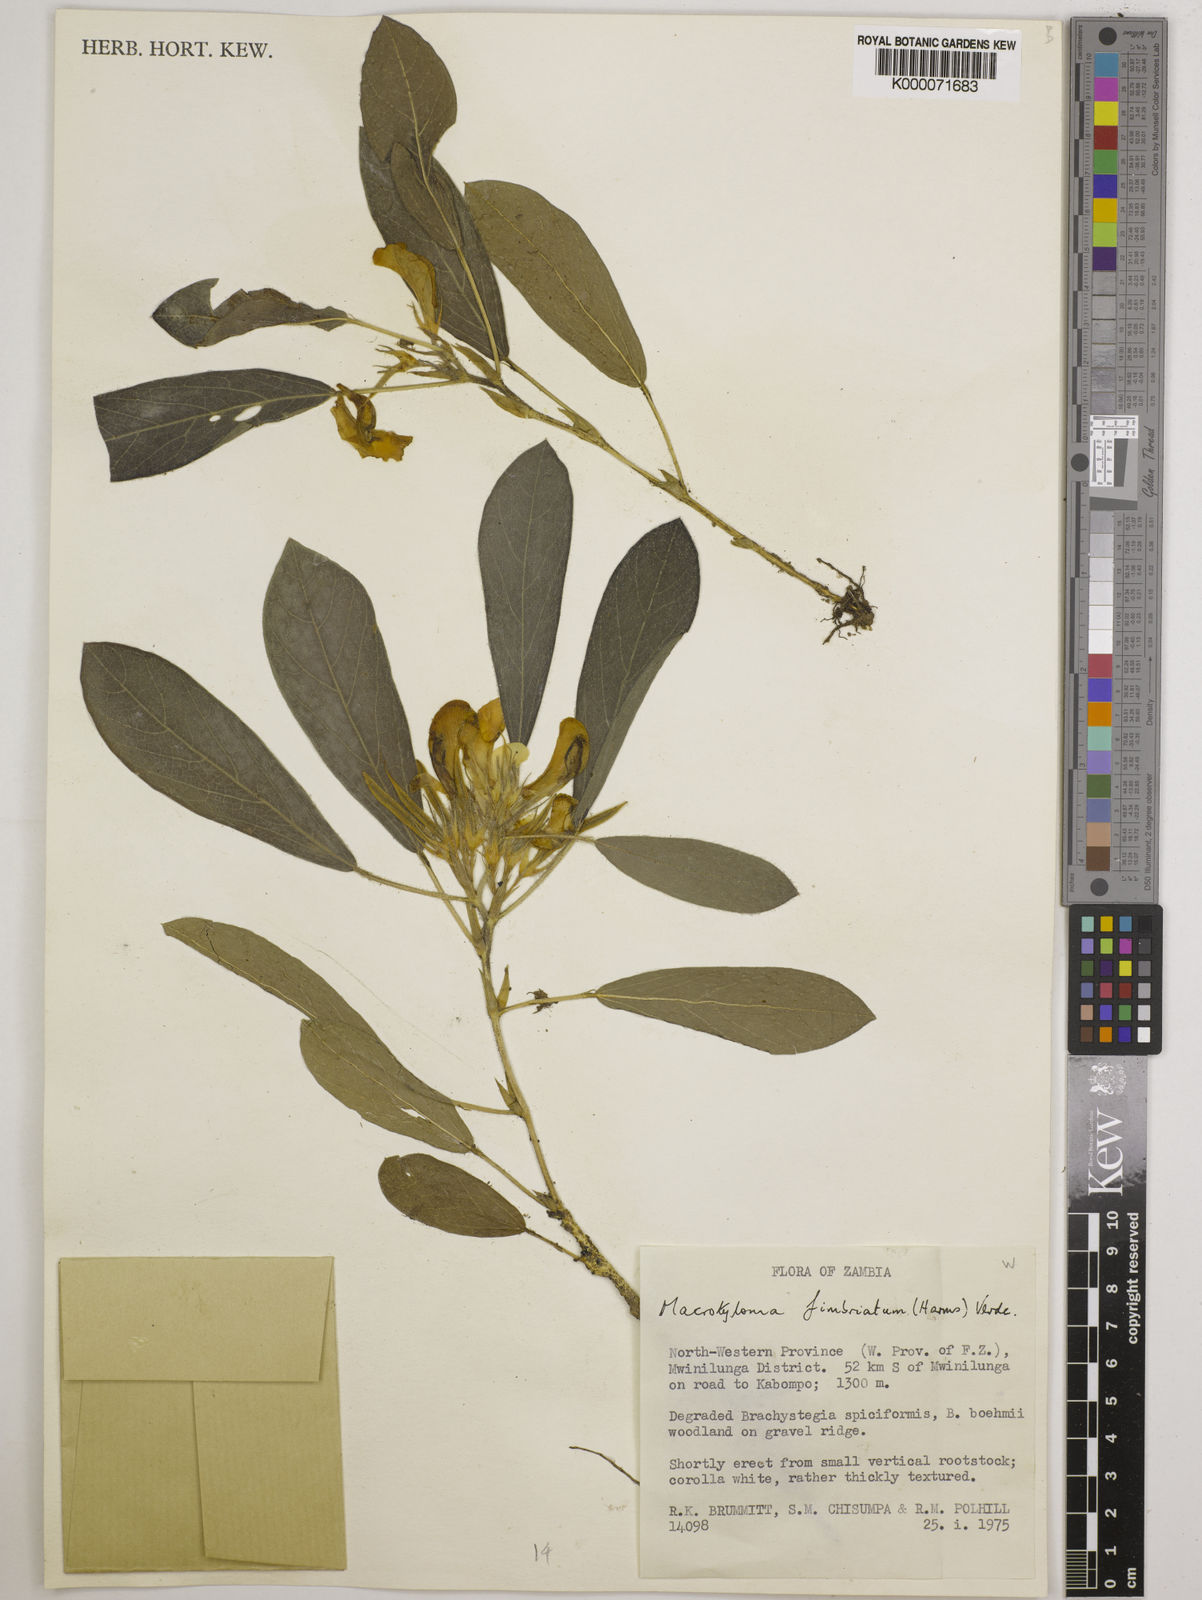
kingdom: Plantae
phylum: Tracheophyta
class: Magnoliopsida
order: Fabales
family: Fabaceae
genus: Macrotyloma
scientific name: Macrotyloma fimbriatum
